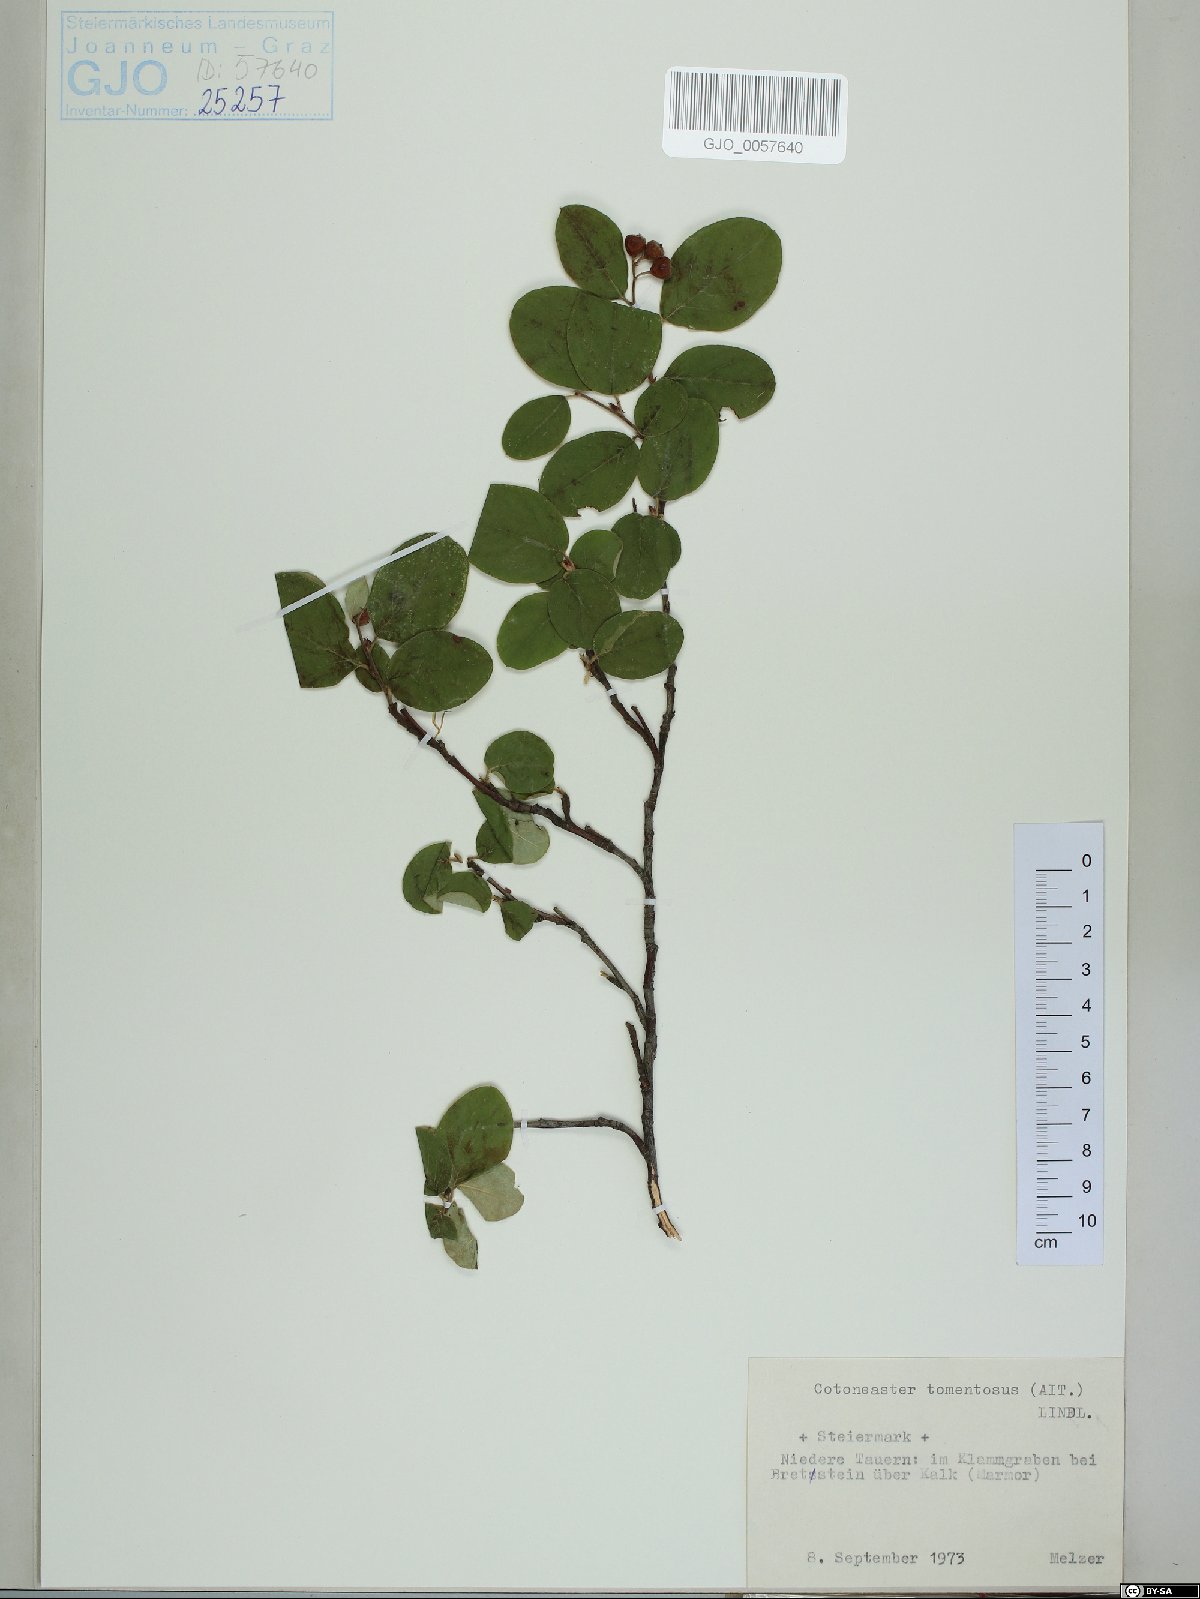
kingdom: Plantae
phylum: Tracheophyta
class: Magnoliopsida
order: Rosales
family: Rosaceae
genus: Cotoneaster
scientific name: Cotoneaster tomentosus
